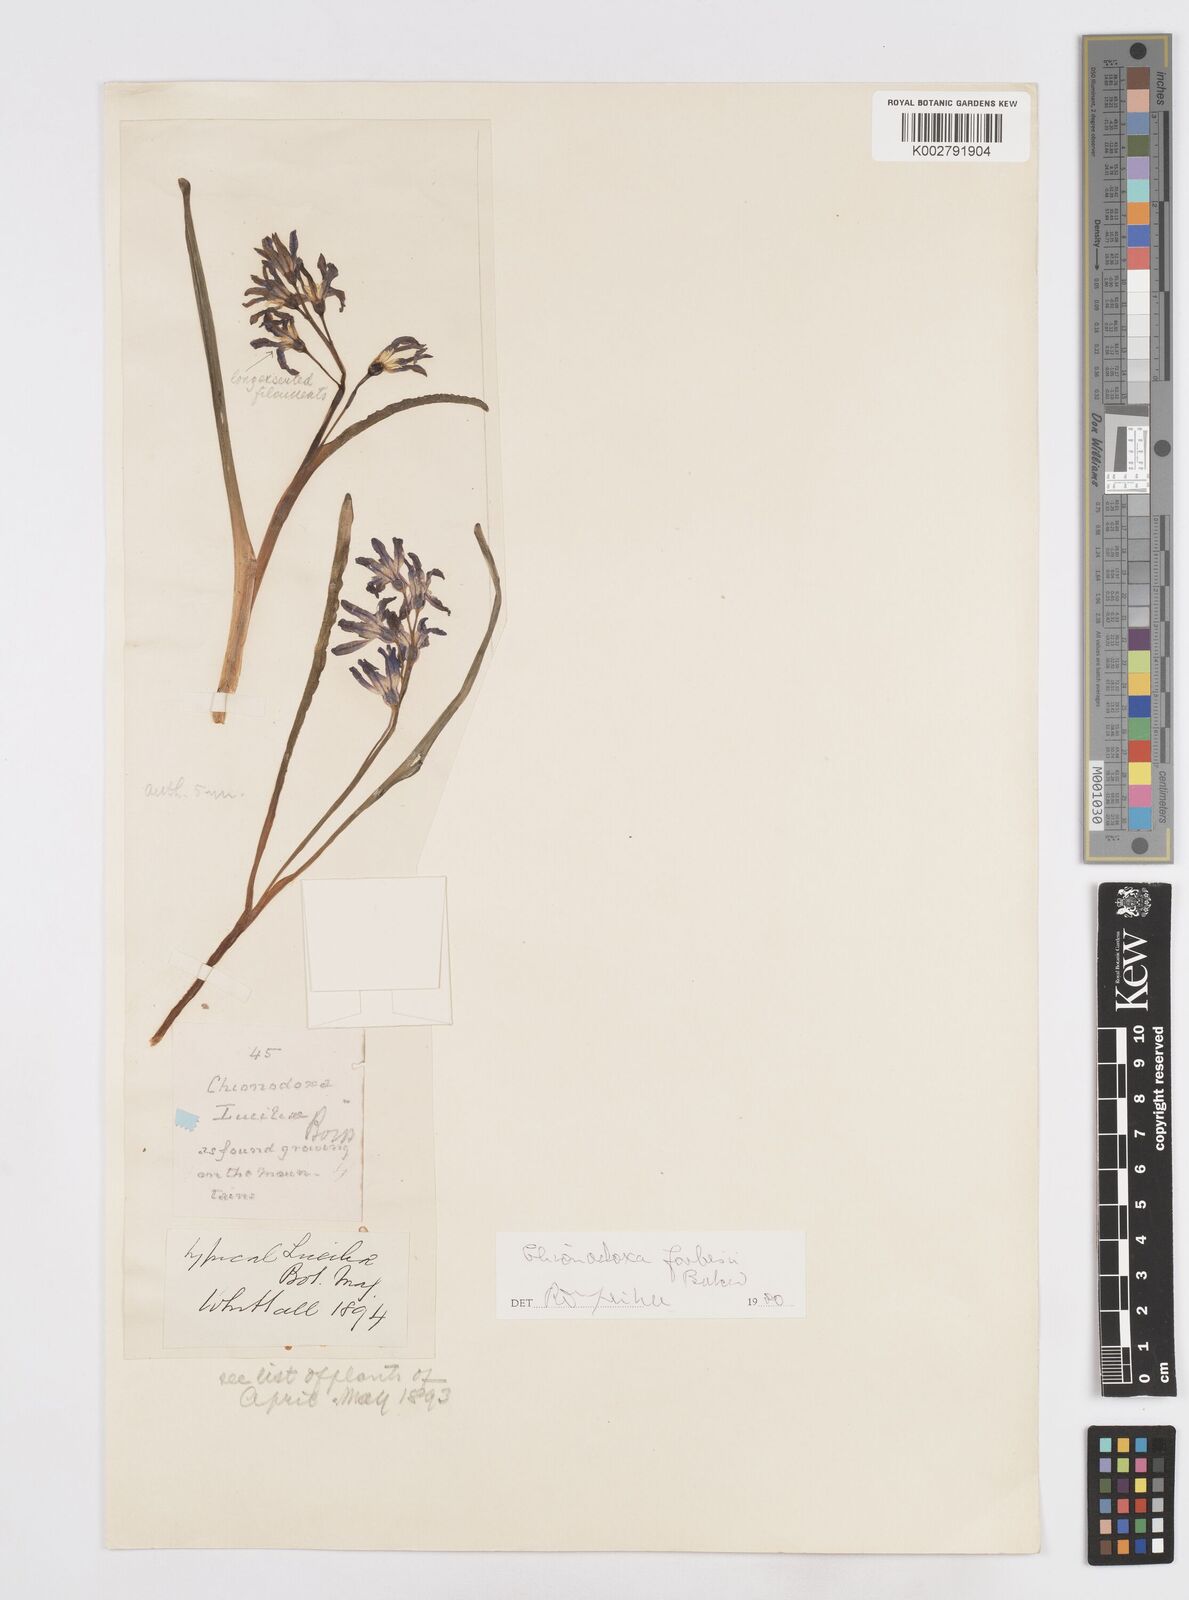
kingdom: Plantae
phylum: Tracheophyta
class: Liliopsida
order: Asparagales
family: Asparagaceae
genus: Scilla
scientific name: Scilla forbesii
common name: Glory-of-the-snow
